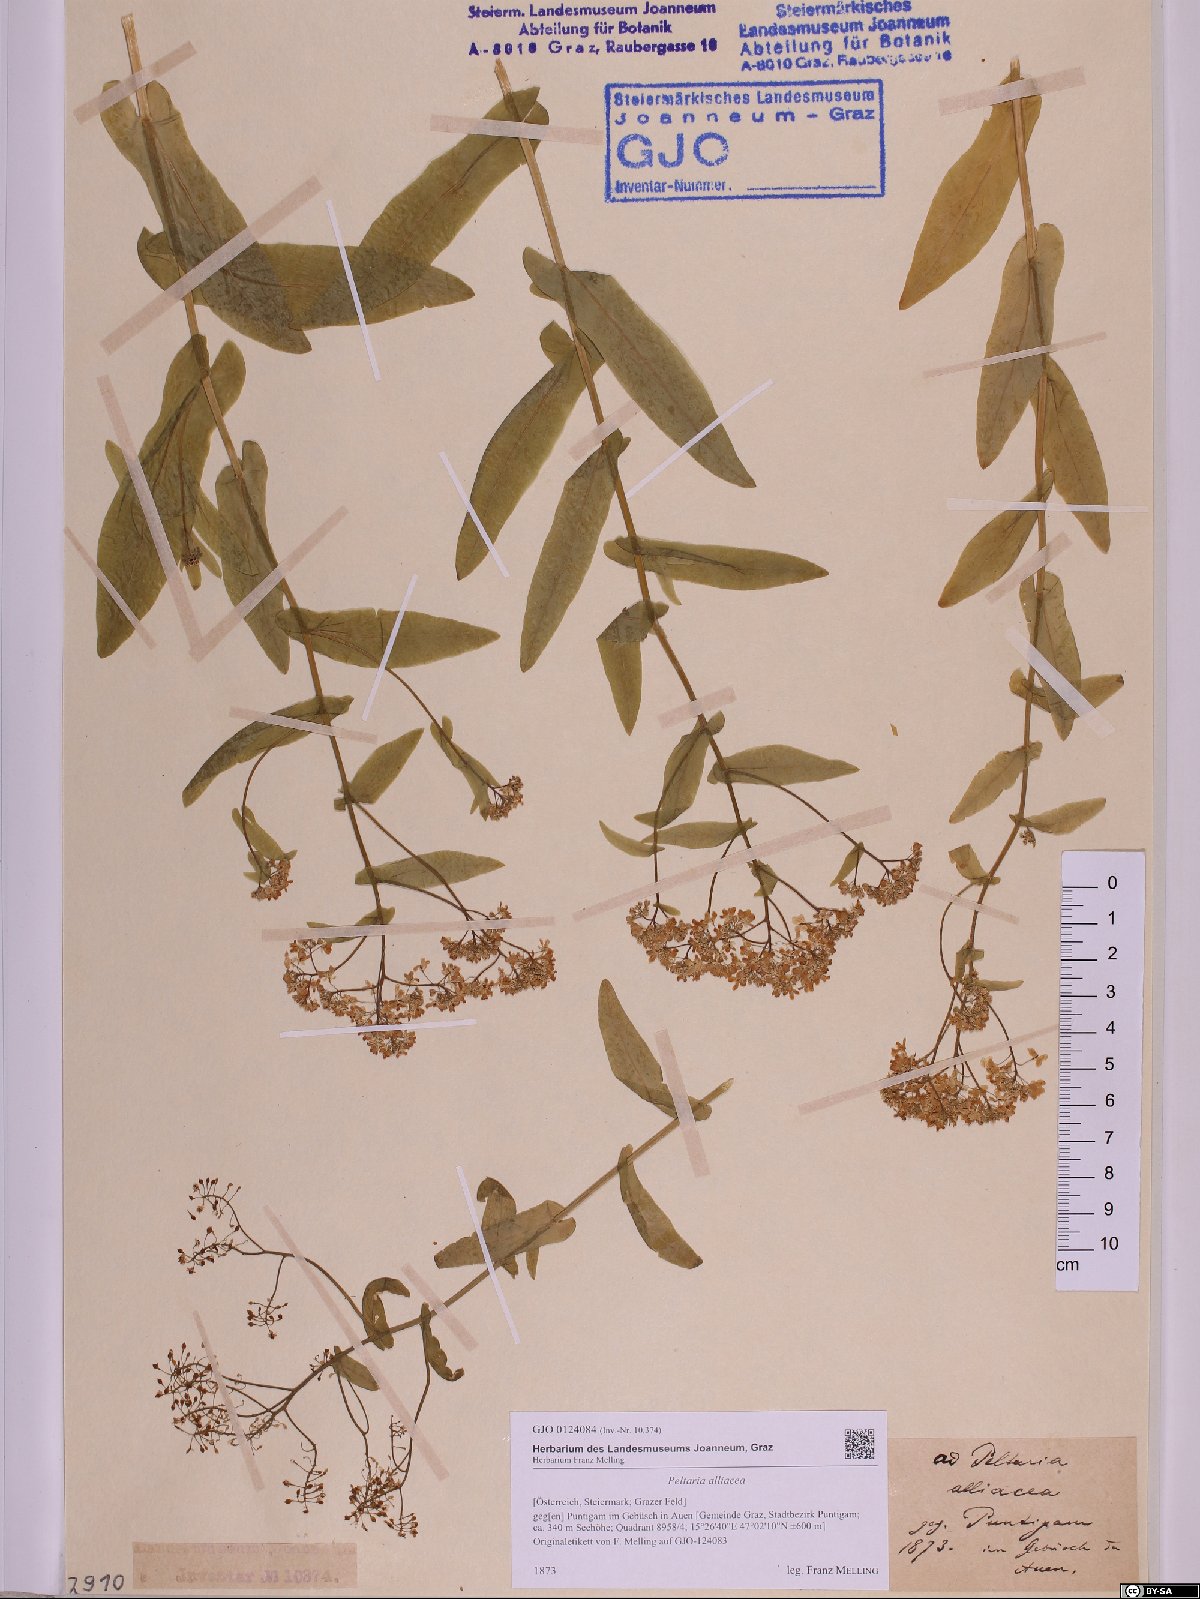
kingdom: Plantae
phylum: Tracheophyta
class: Magnoliopsida
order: Brassicales
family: Brassicaceae
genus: Peltaria
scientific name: Peltaria alliacea
